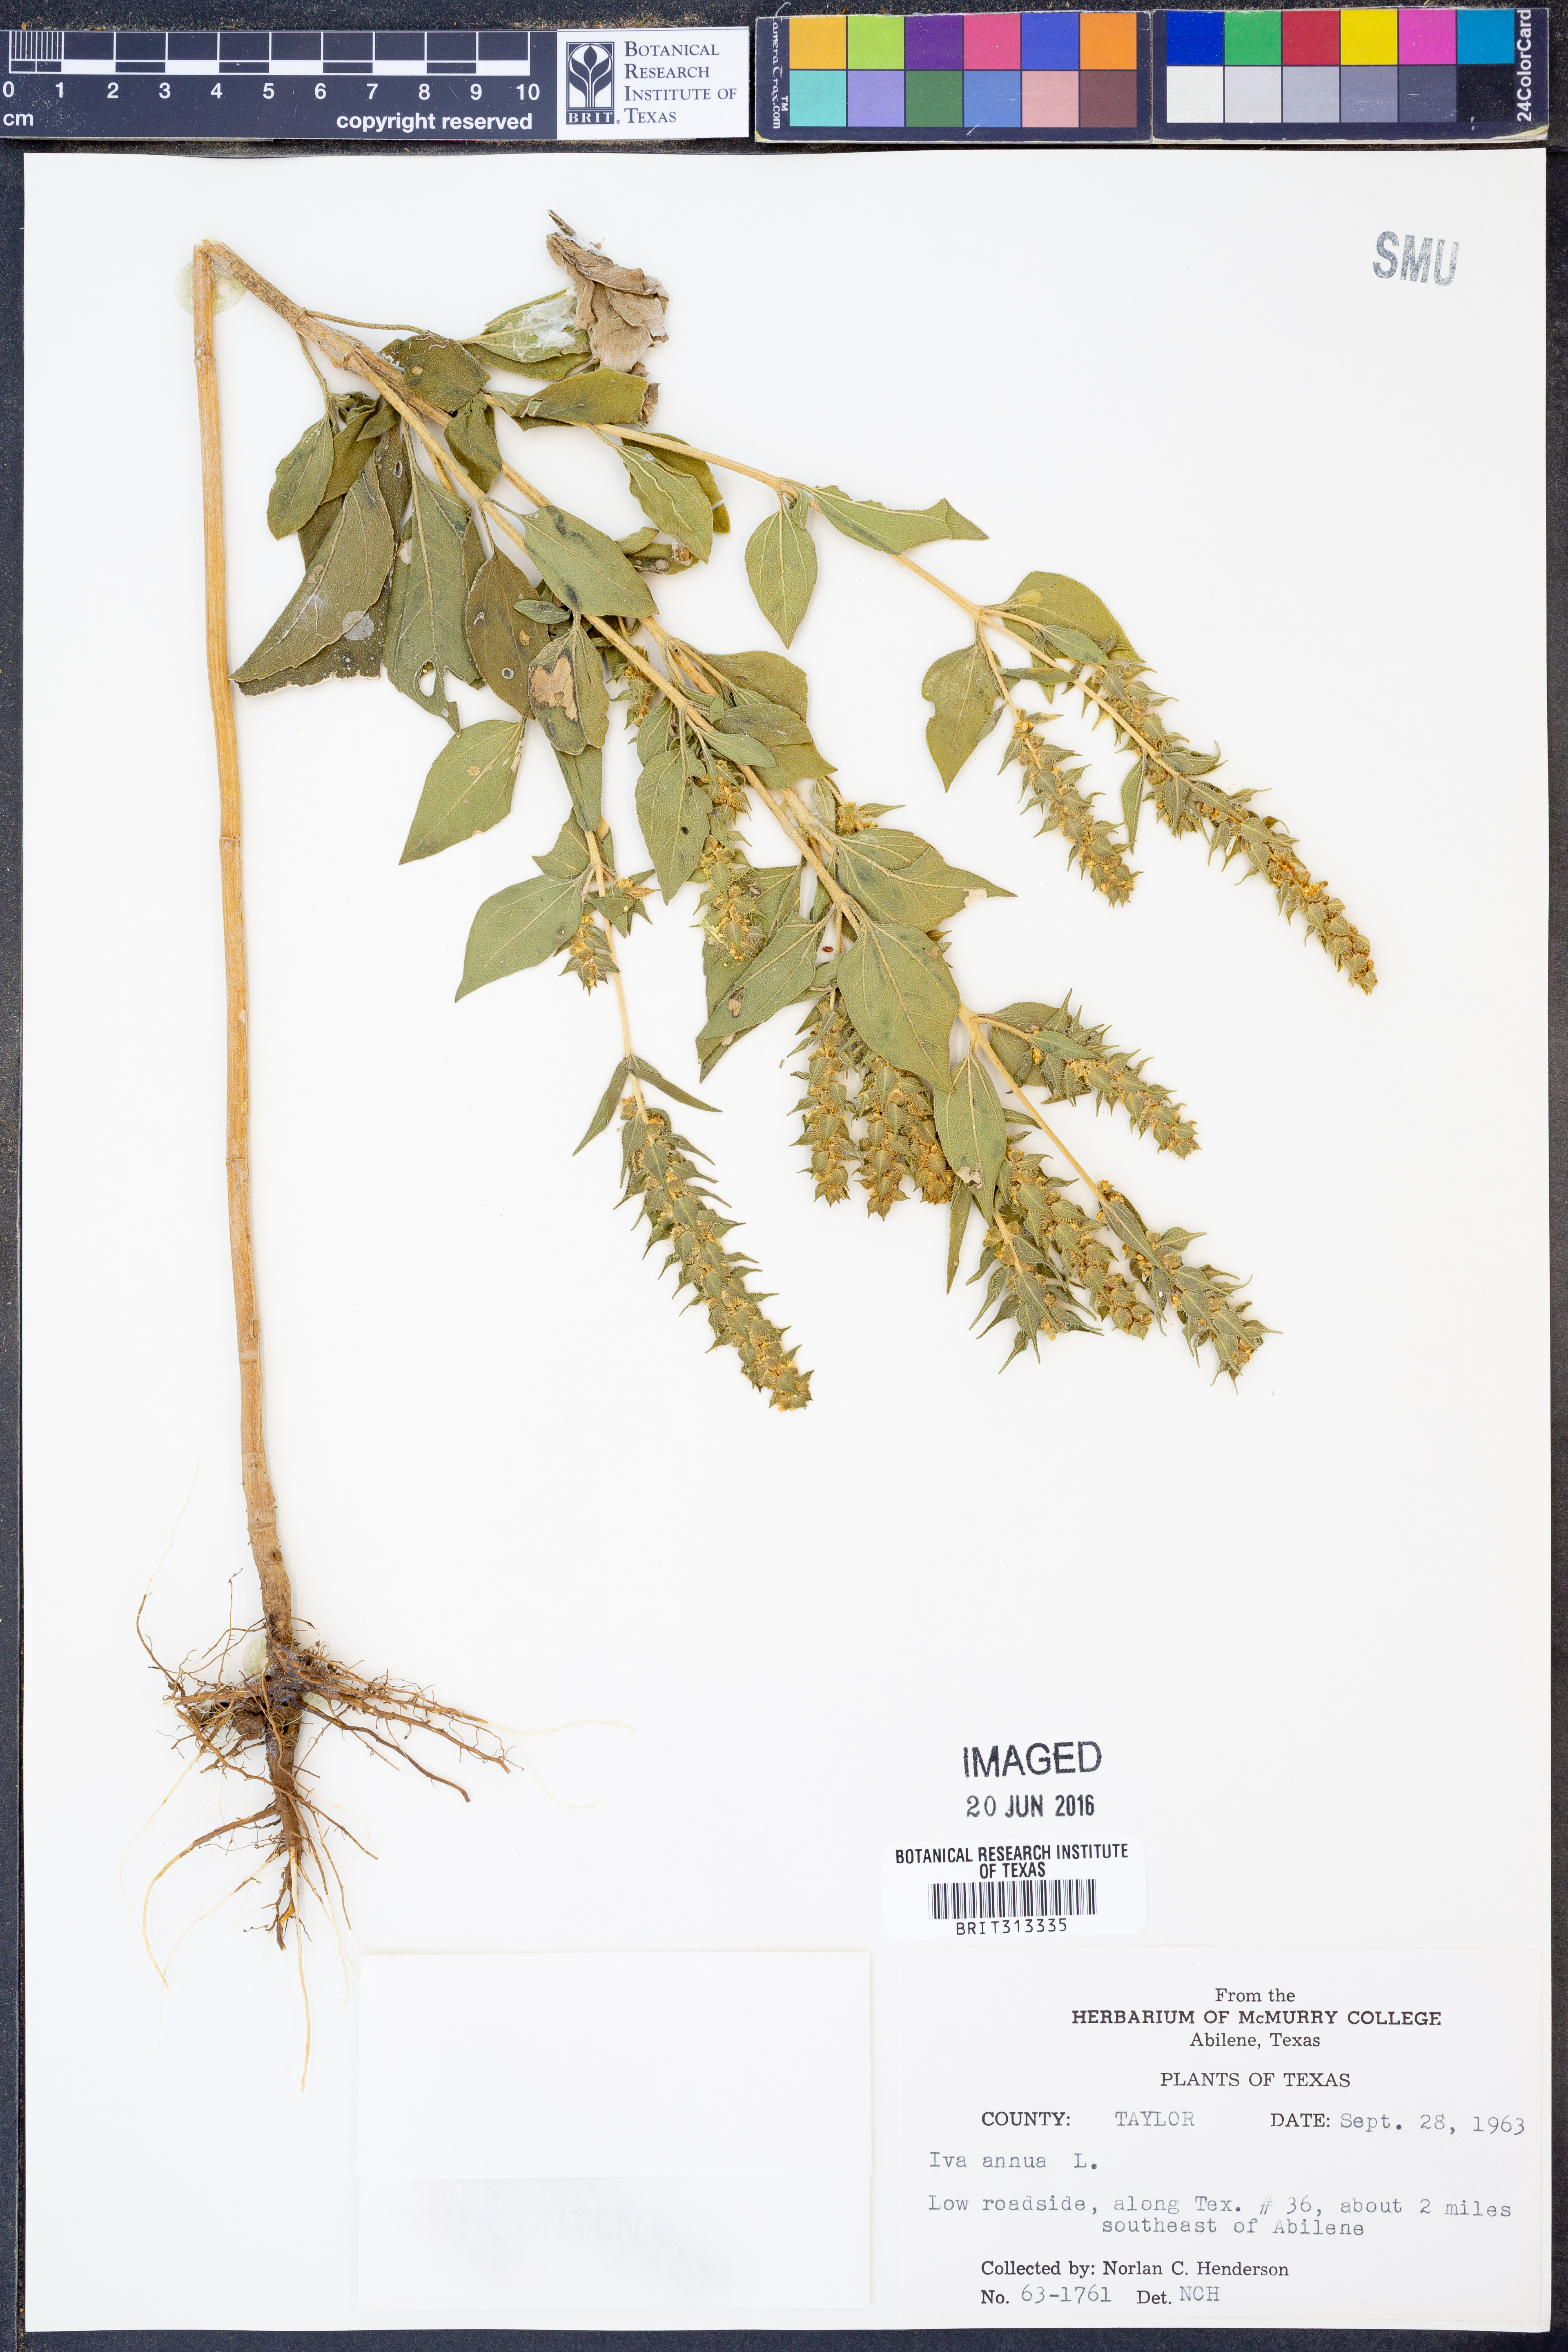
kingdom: Plantae
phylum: Tracheophyta
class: Magnoliopsida
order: Asterales
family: Asteraceae
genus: Iva
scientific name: Iva annua
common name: Marsh-elder
